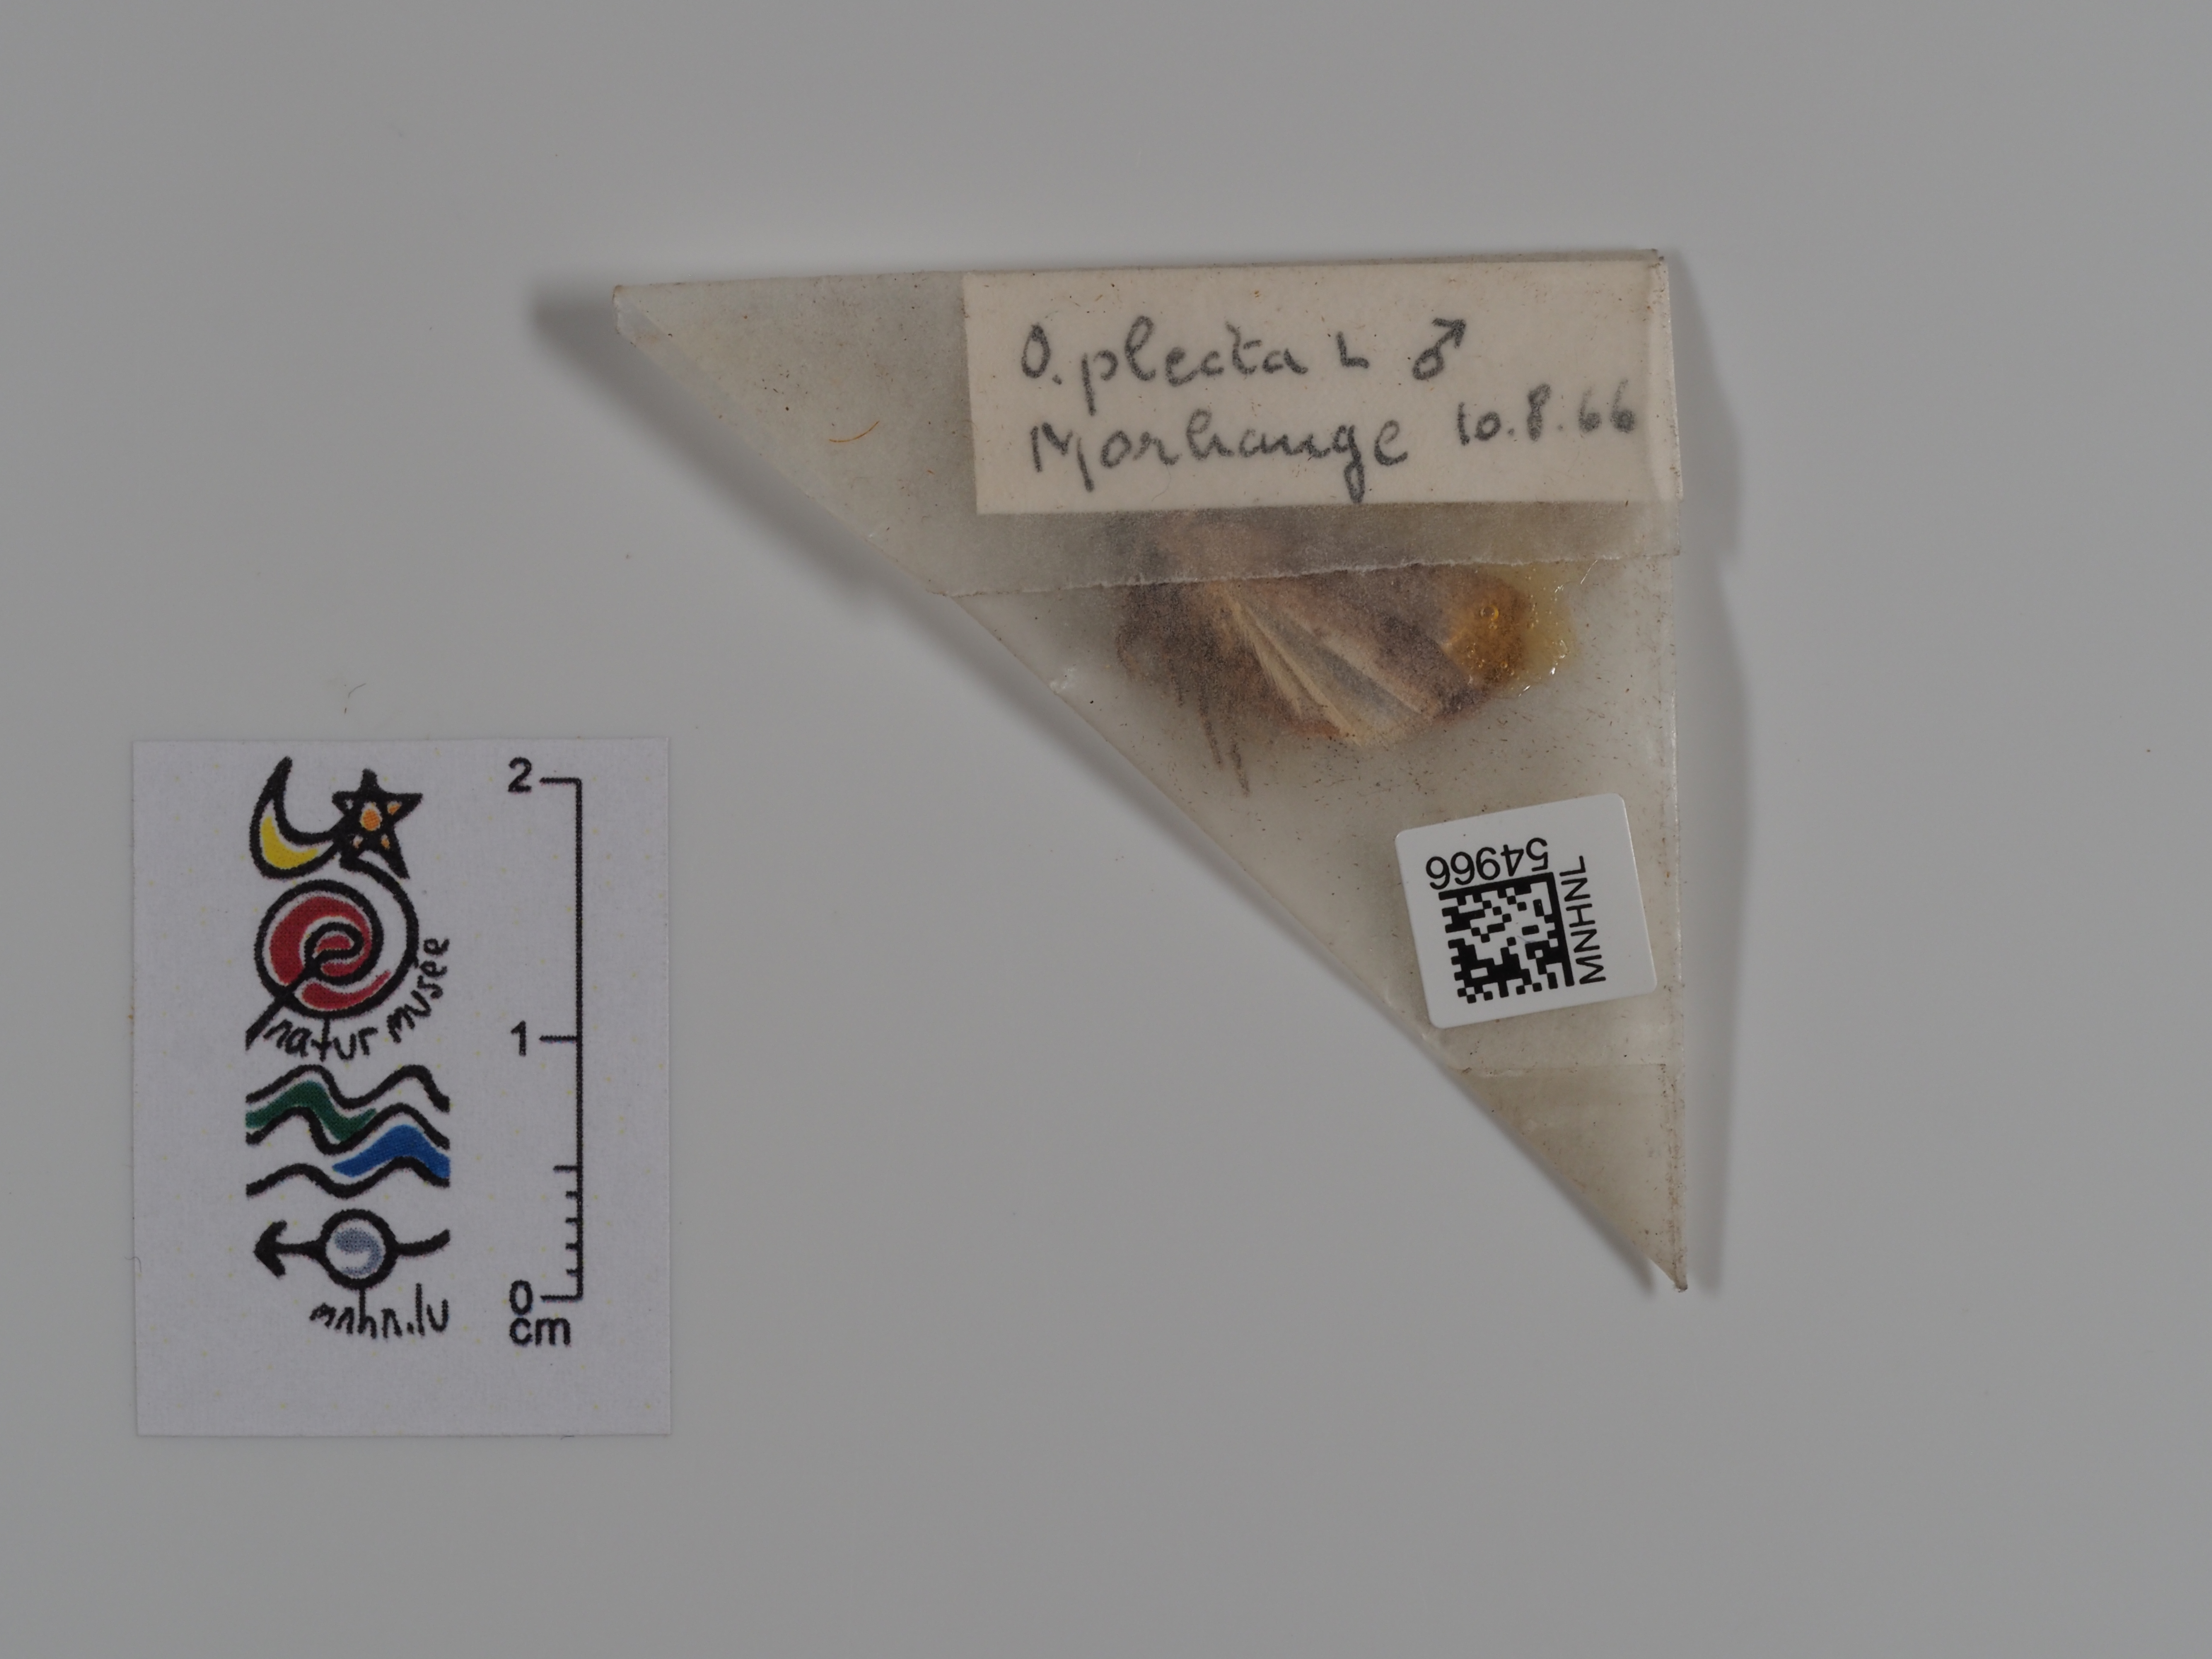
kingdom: Animalia
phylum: Arthropoda
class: Insecta
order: Lepidoptera
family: Noctuidae
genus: Ochropleura
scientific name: Ochropleura plecta
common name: Flame shoulder
